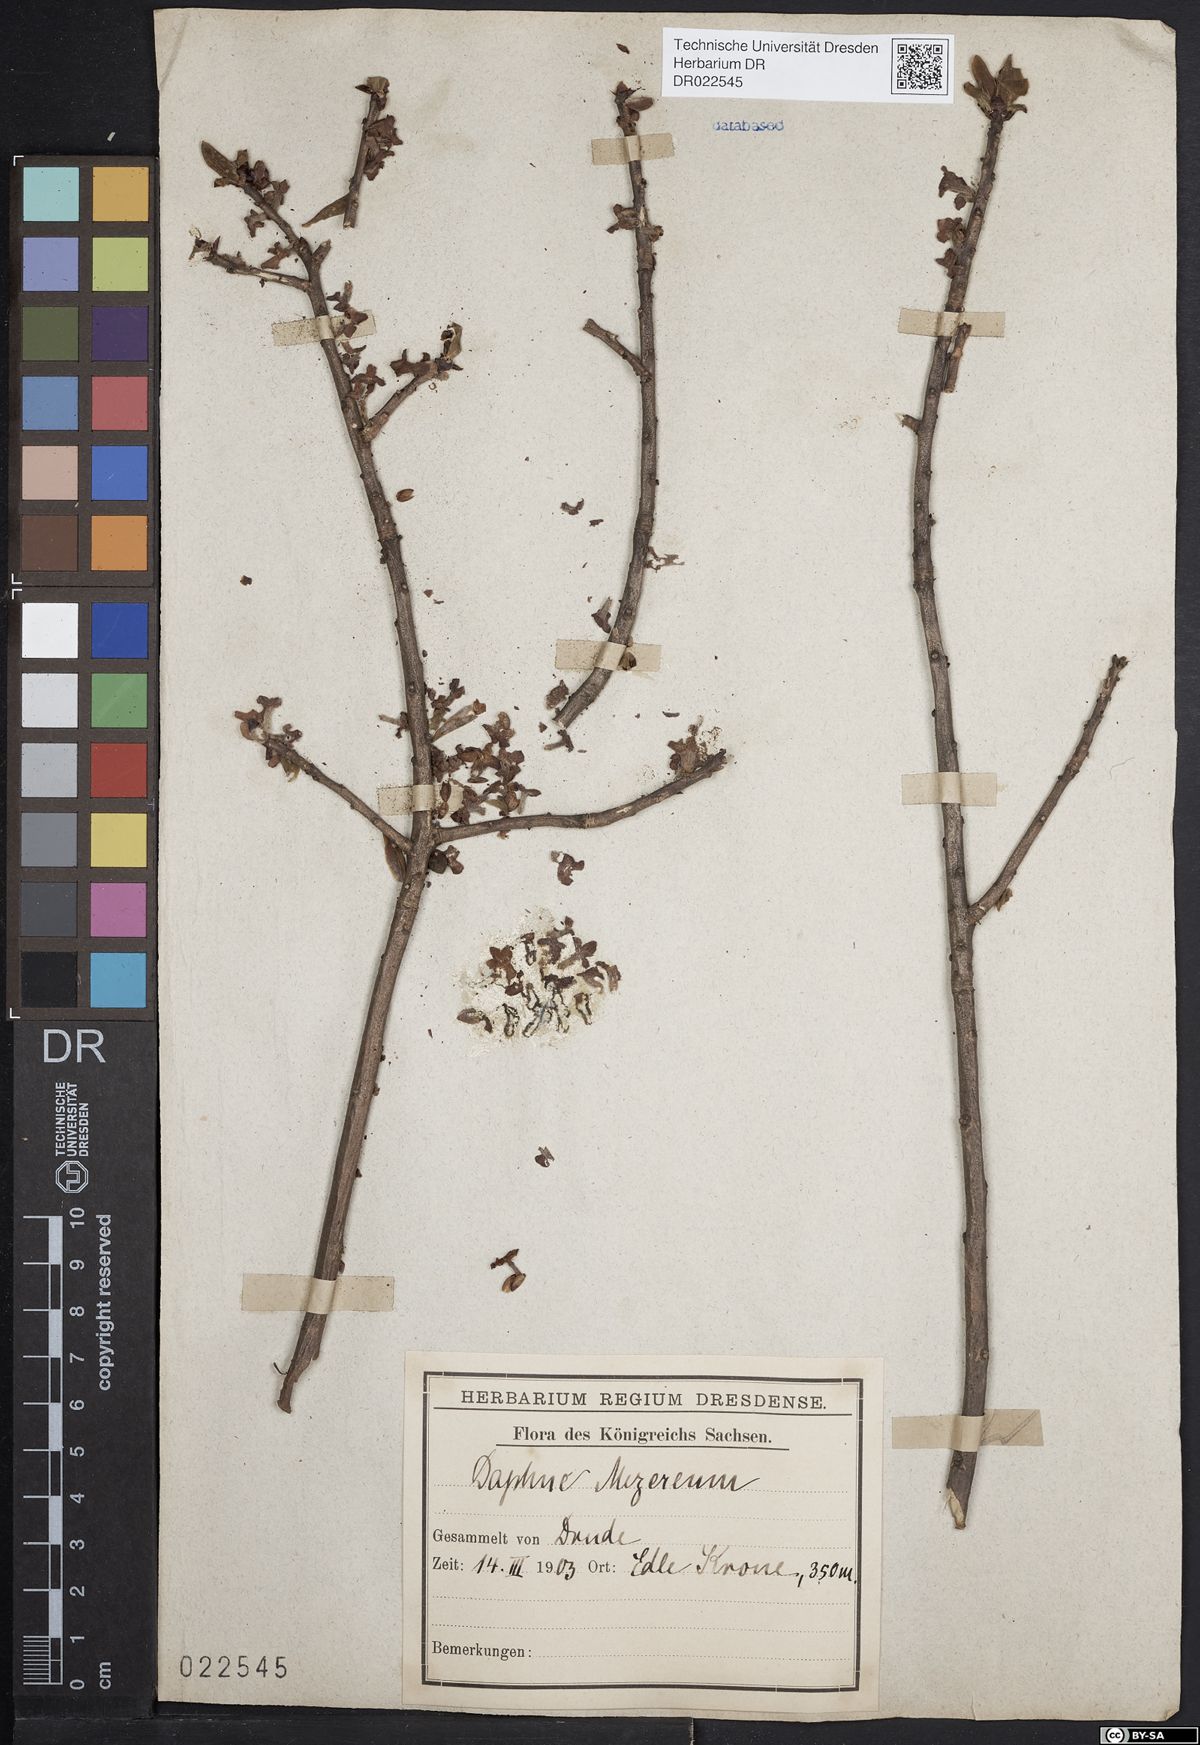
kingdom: Plantae
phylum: Tracheophyta
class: Magnoliopsida
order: Malvales
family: Thymelaeaceae
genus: Daphne
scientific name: Daphne mezereum
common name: Mezereon
